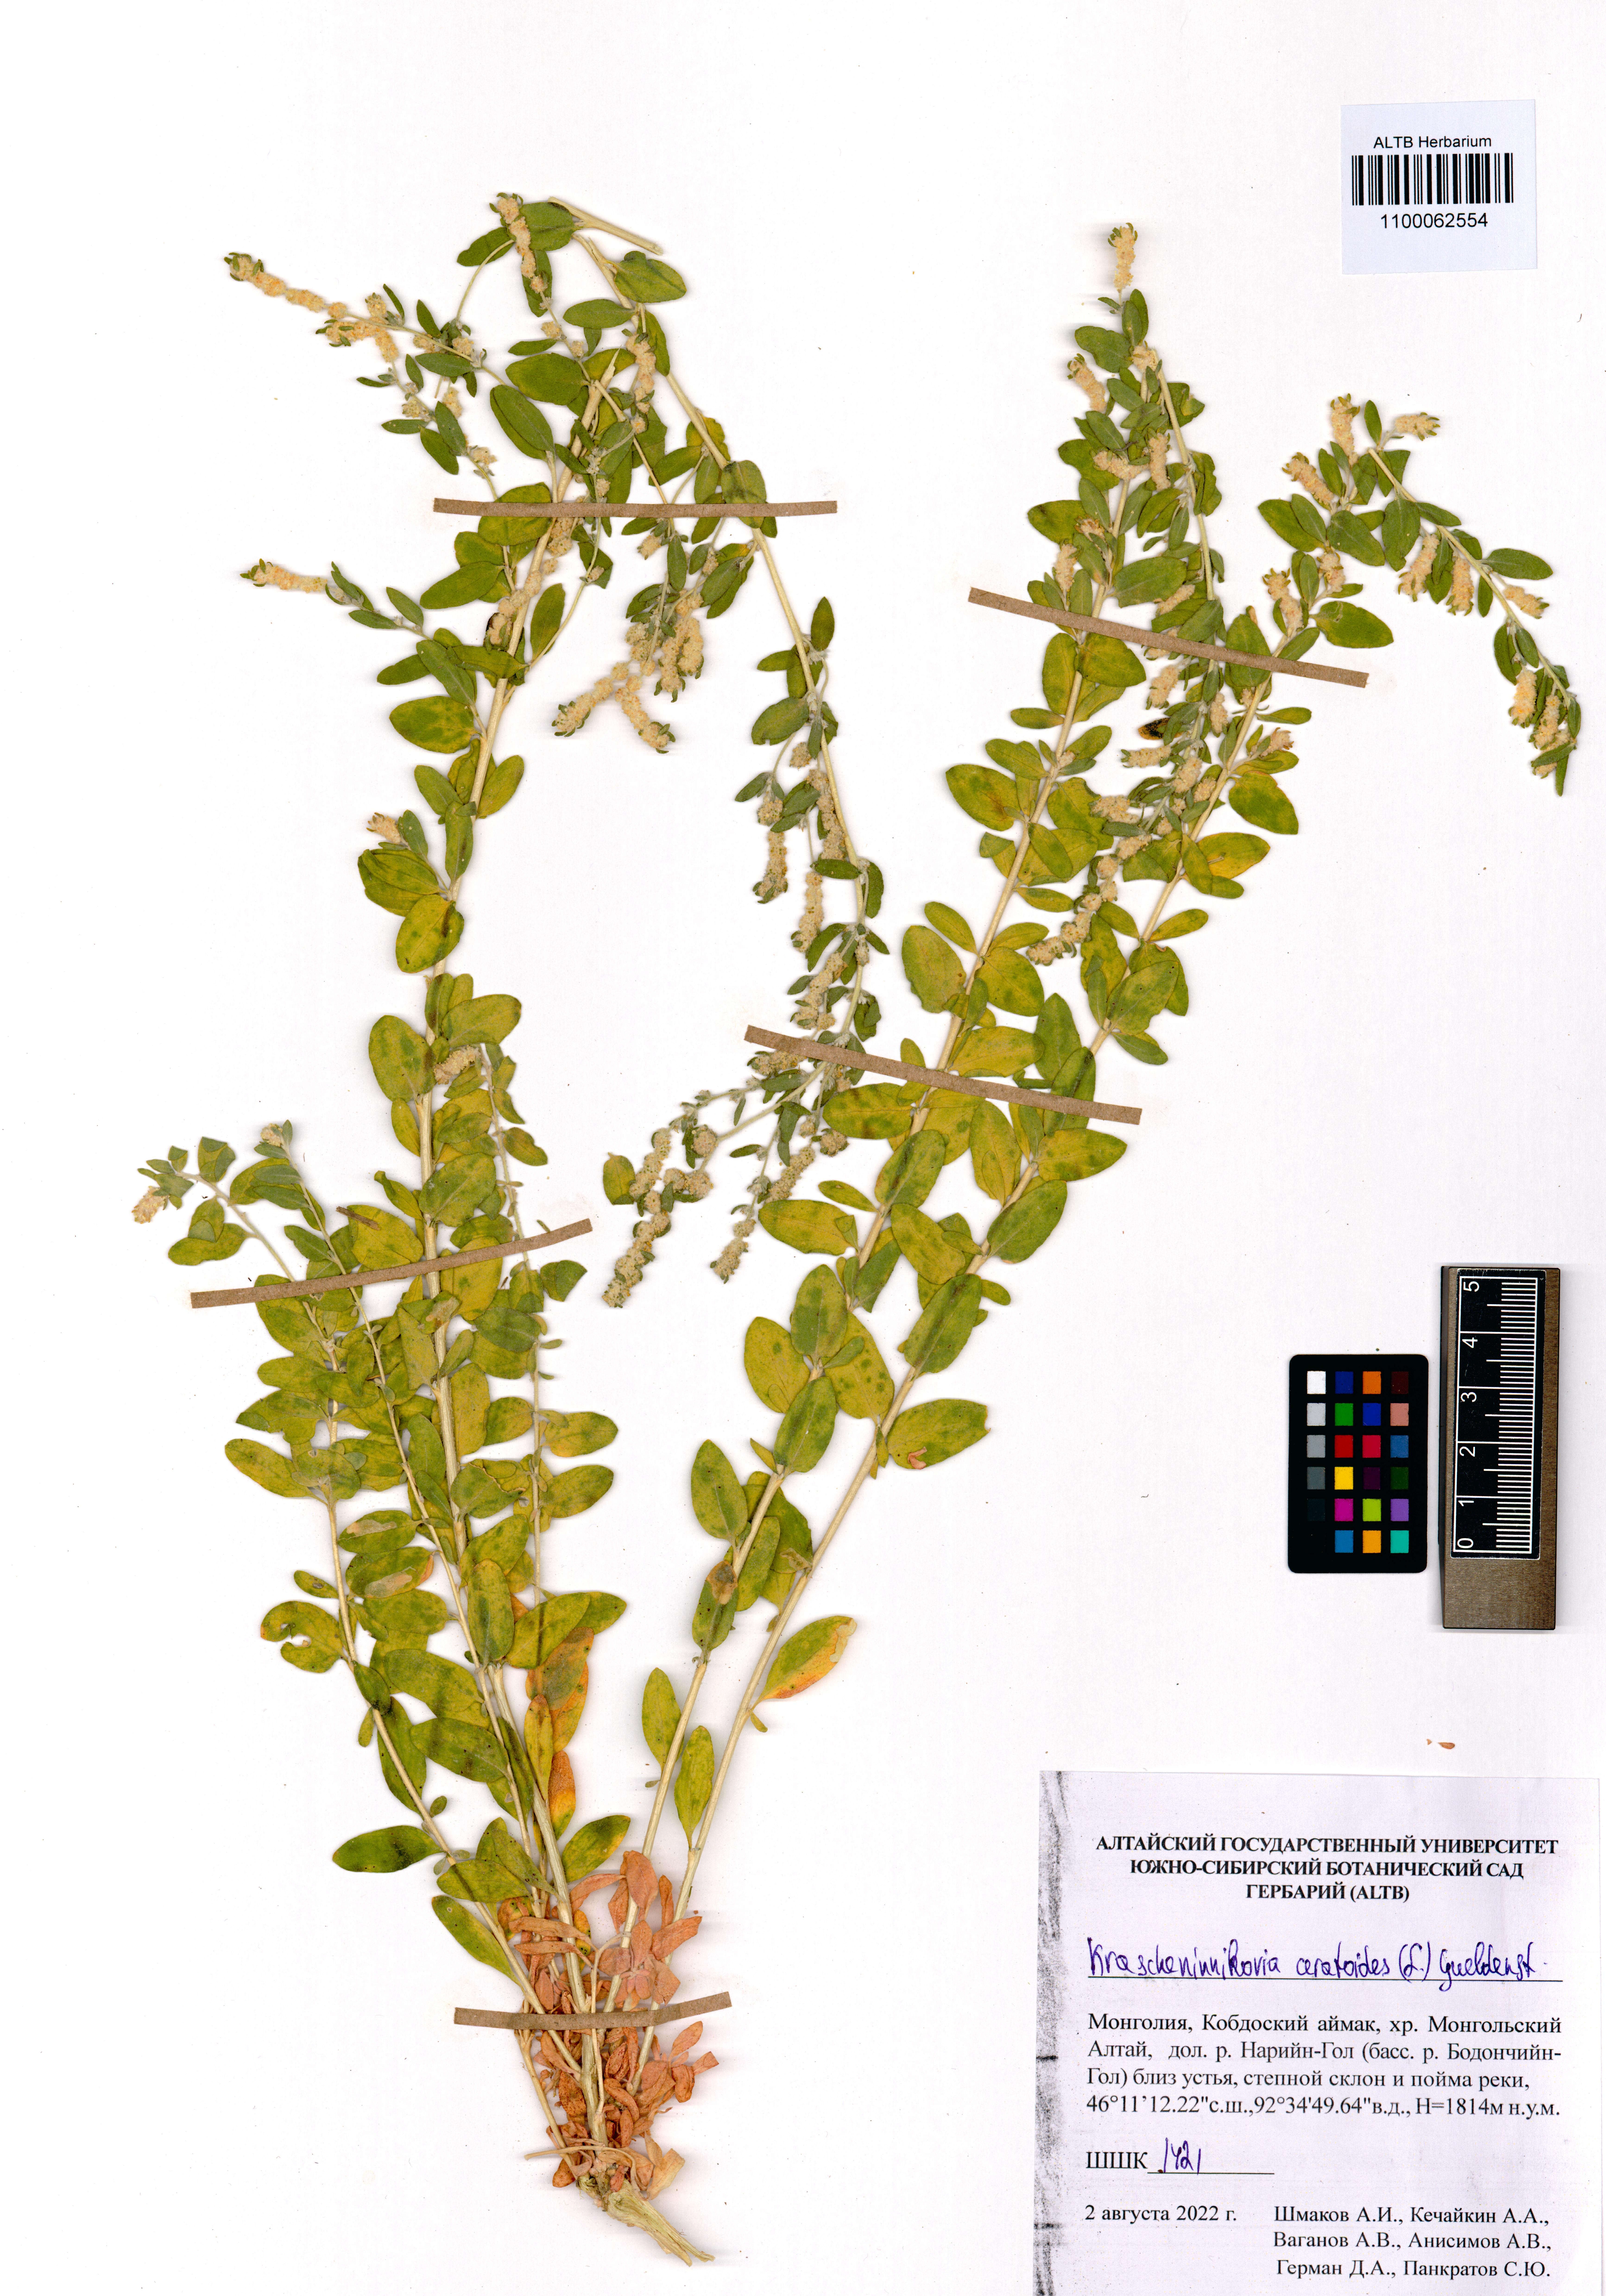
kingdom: Plantae
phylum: Tracheophyta
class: Magnoliopsida
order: Caryophyllales
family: Amaranthaceae
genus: Krascheninnikovia
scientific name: Krascheninnikovia ceratoides
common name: Pamirian winterfat
